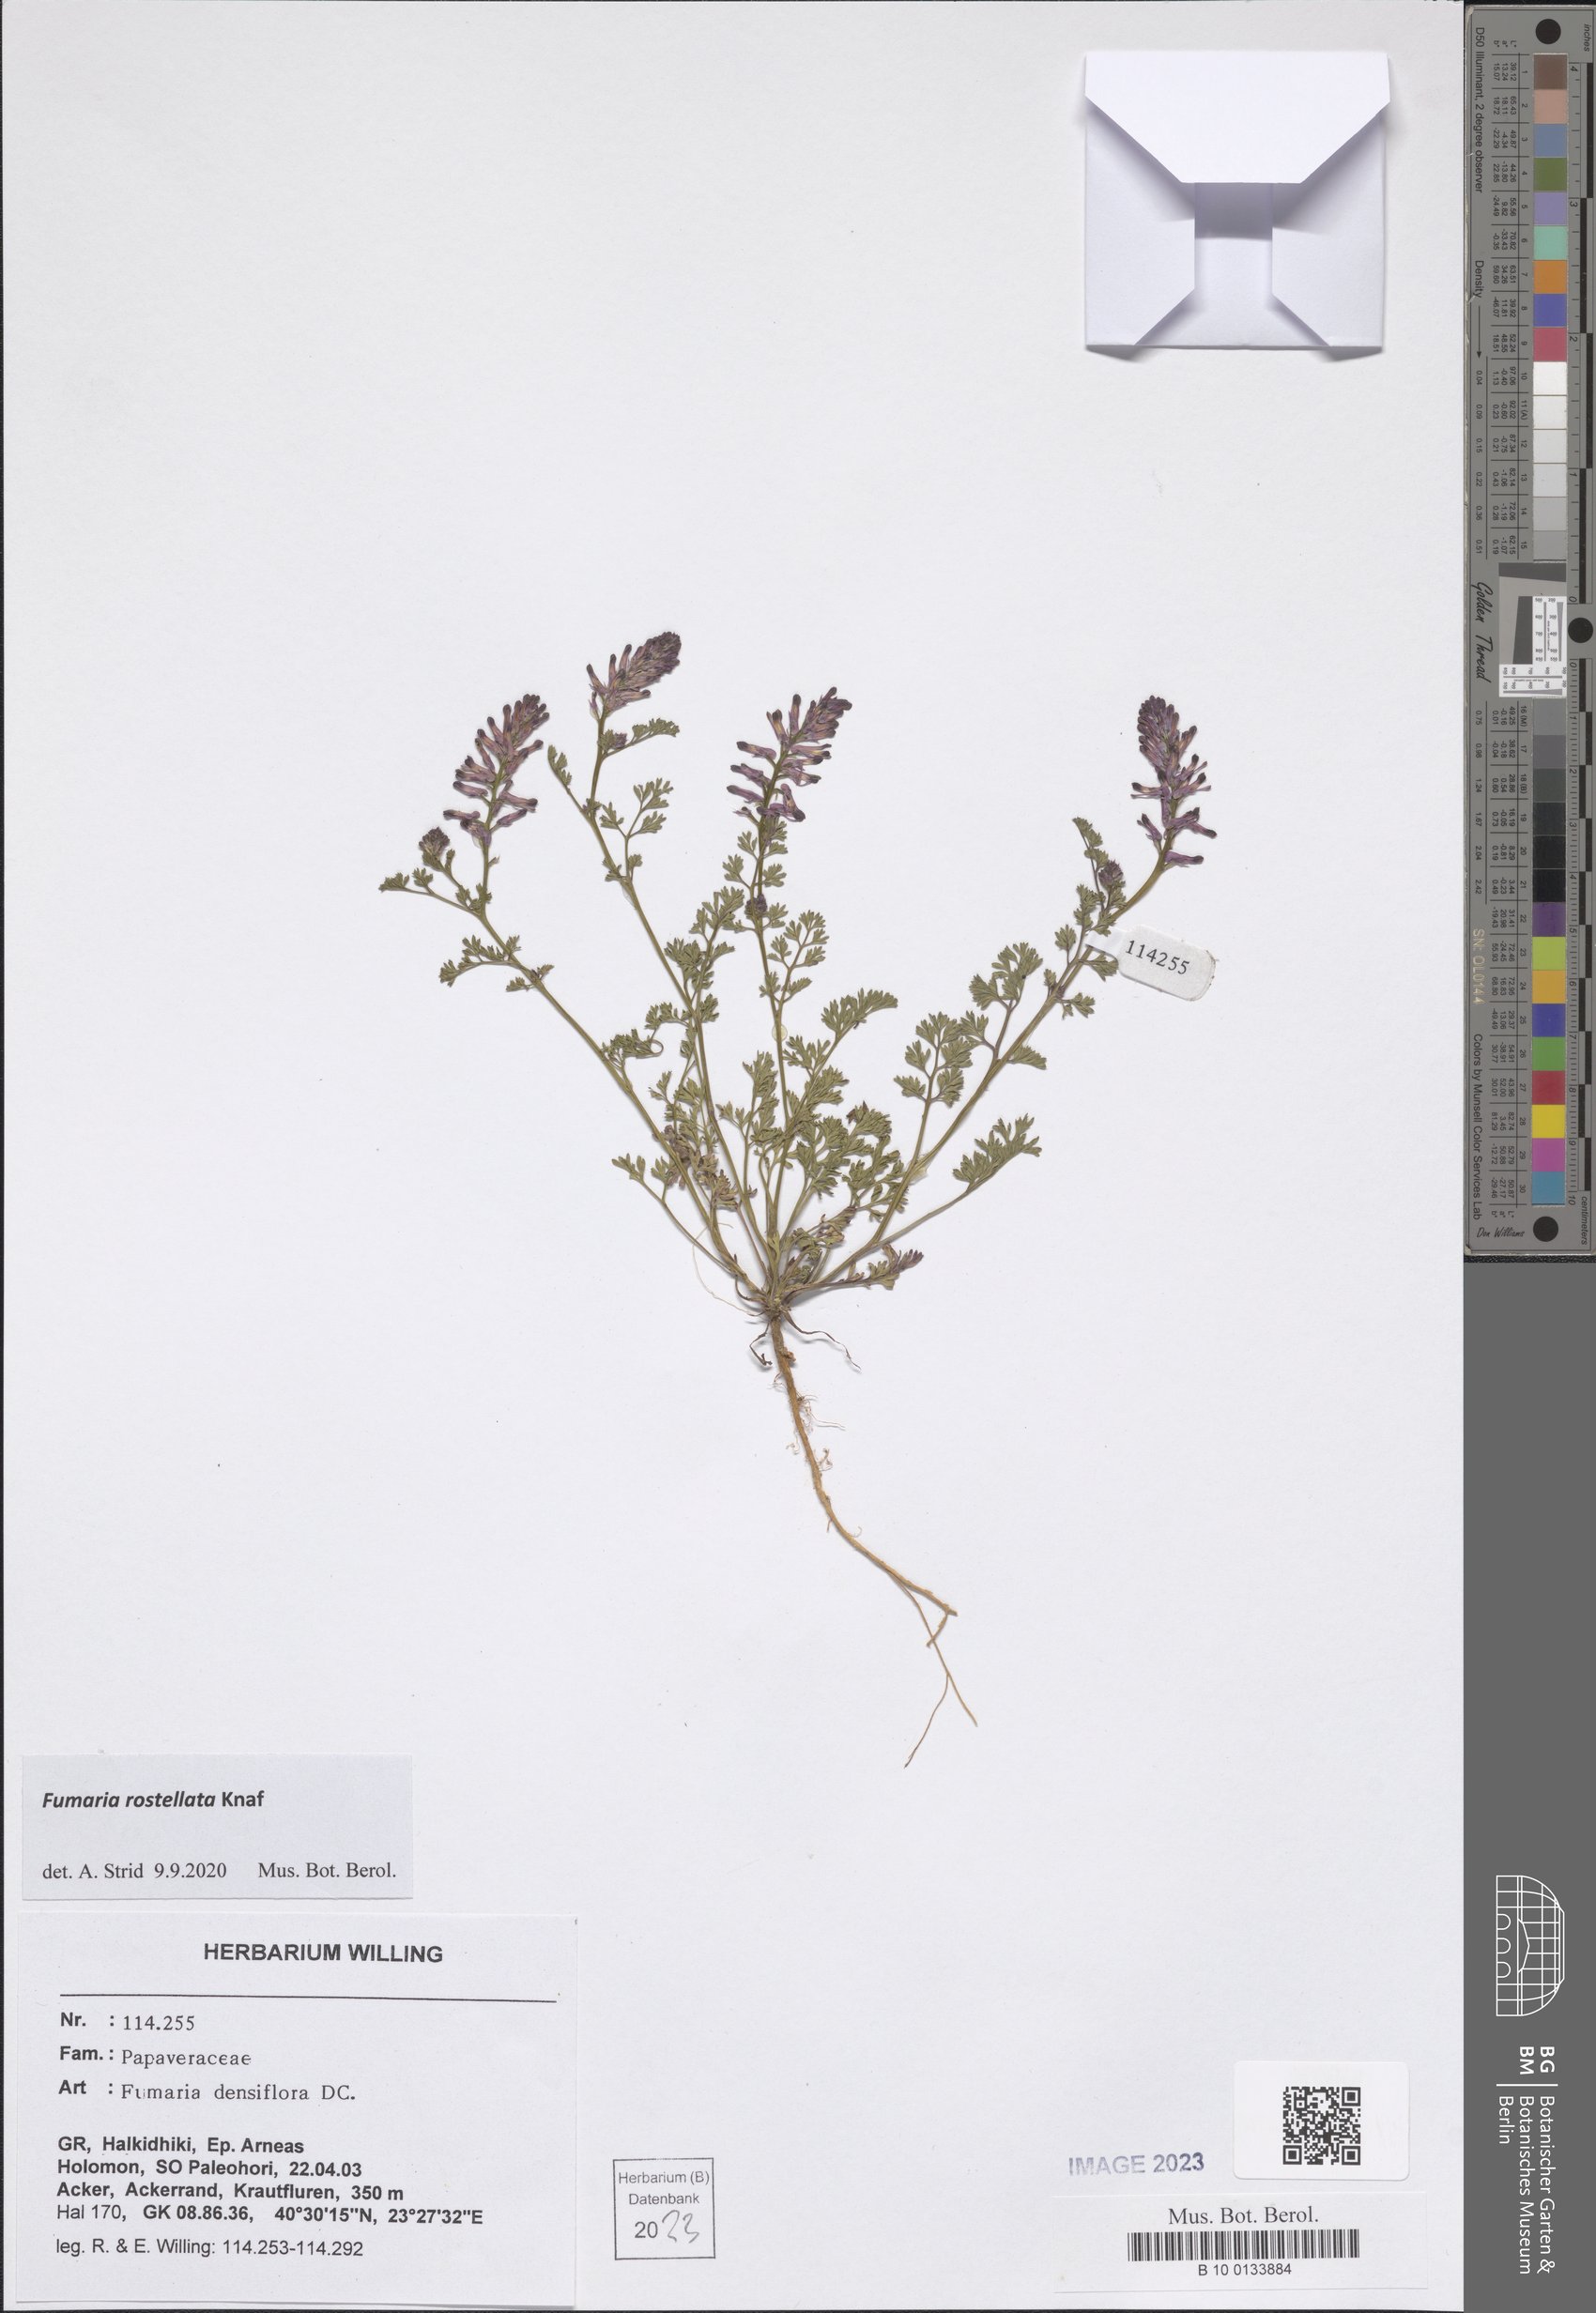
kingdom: Plantae
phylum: Tracheophyta
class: Magnoliopsida
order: Ranunculales
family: Papaveraceae
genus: Fumaria
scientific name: Fumaria rostellata
